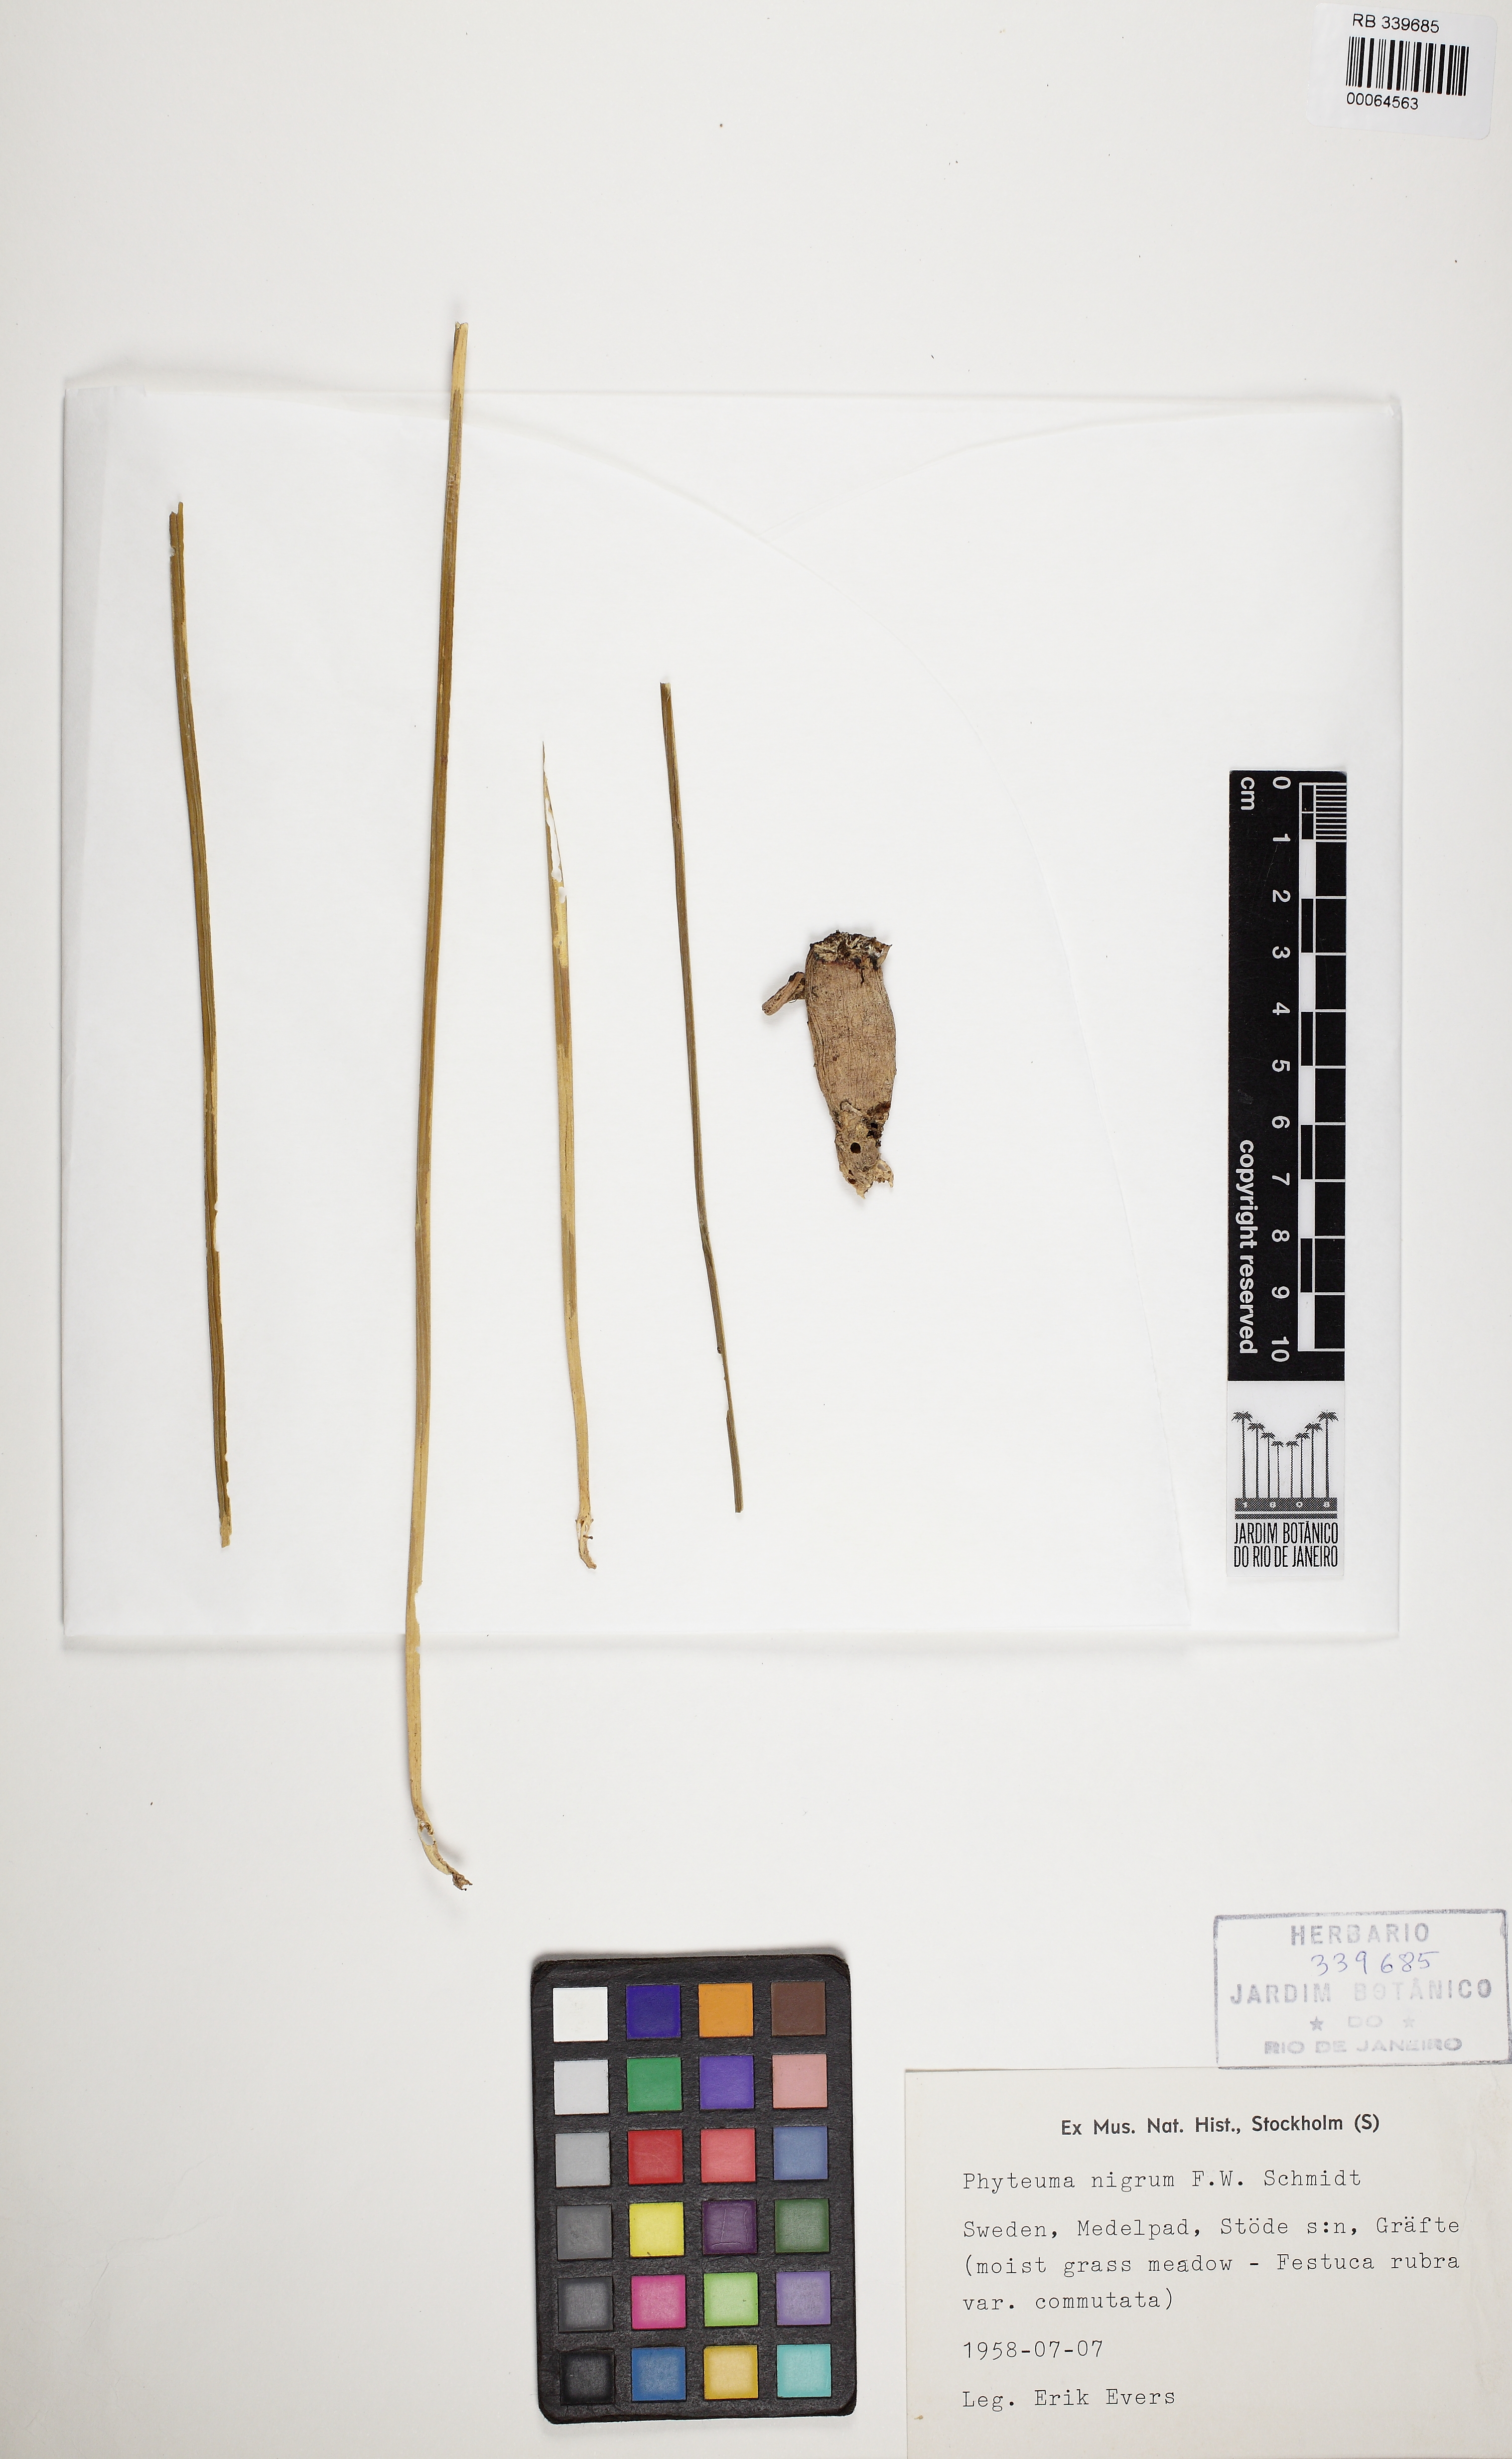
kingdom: Plantae
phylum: Tracheophyta
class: Magnoliopsida
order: Asterales
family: Campanulaceae
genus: Phyteuma
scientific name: Phyteuma nigrum
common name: Black rampion
